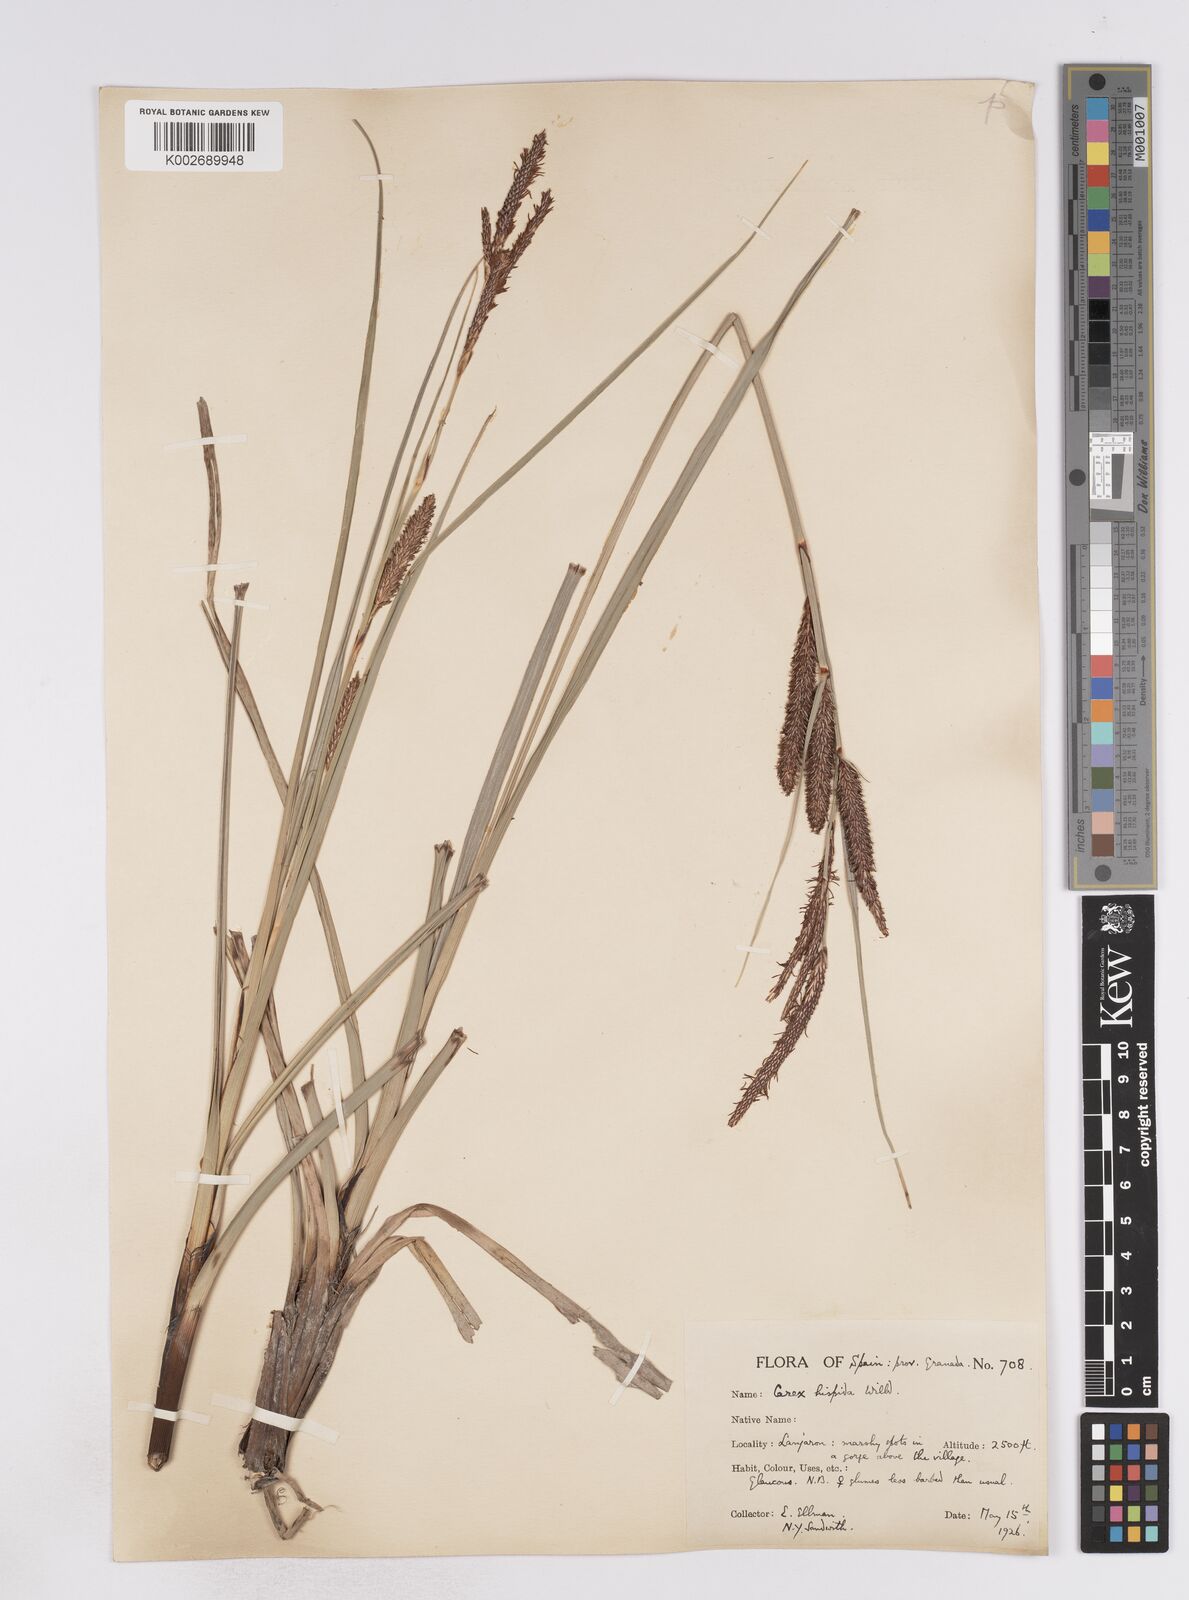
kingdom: Plantae
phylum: Tracheophyta
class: Liliopsida
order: Poales
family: Cyperaceae
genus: Carex
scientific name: Carex hispida
